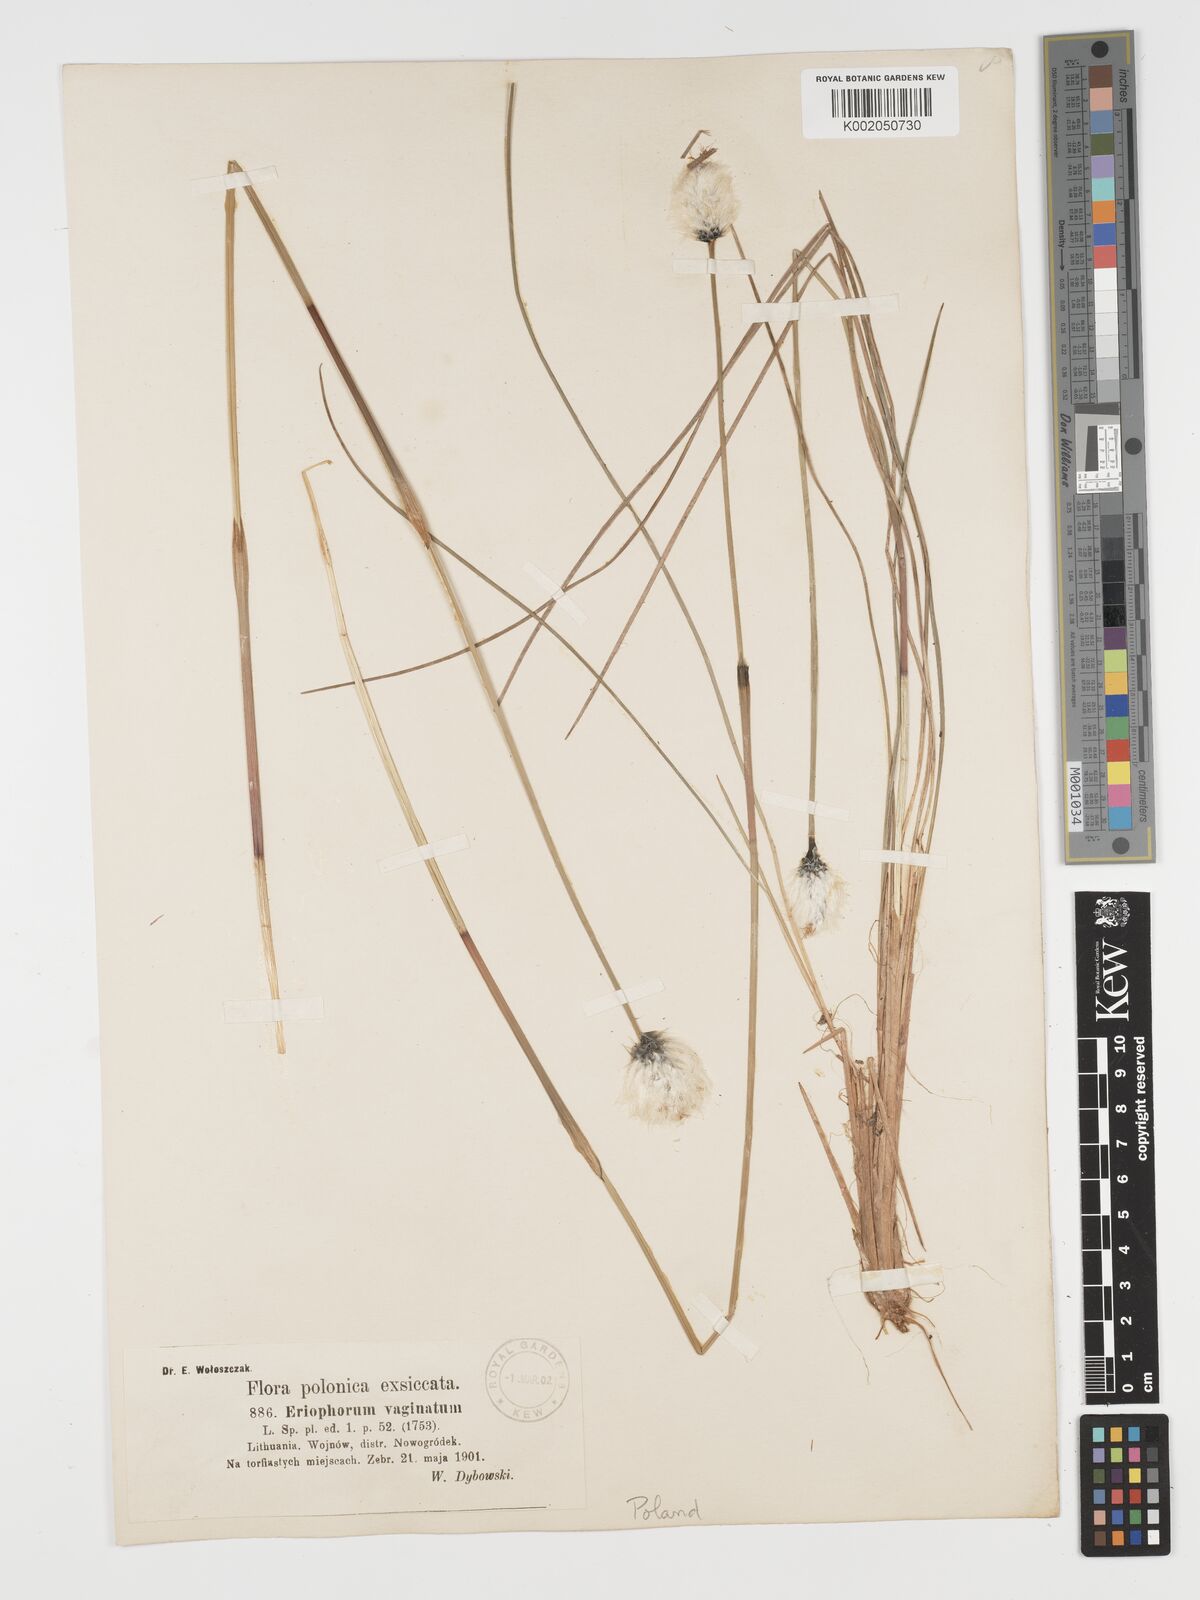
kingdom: Plantae
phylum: Tracheophyta
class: Liliopsida
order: Poales
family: Cyperaceae
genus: Eriophorum
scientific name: Eriophorum vaginatum
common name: Hare's-tail cottongrass
